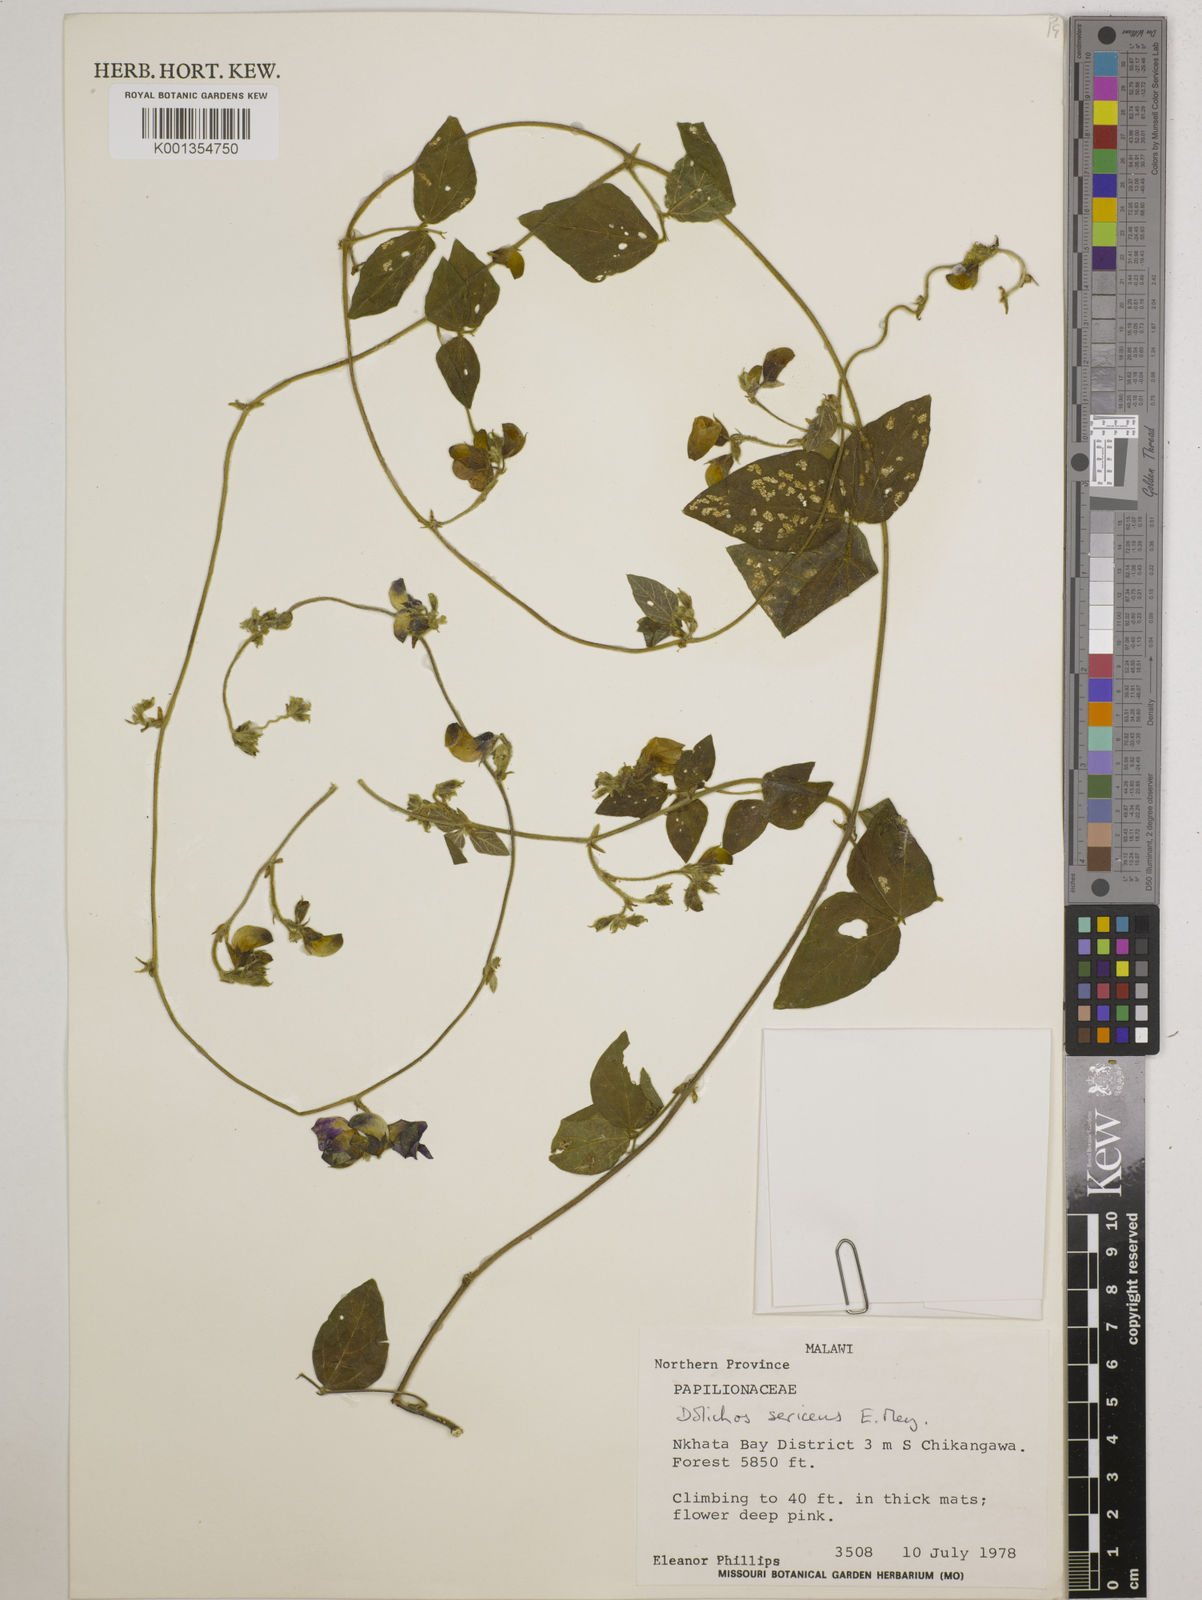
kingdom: Plantae
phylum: Tracheophyta
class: Magnoliopsida
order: Fabales
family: Fabaceae
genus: Dolichos
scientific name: Dolichos
